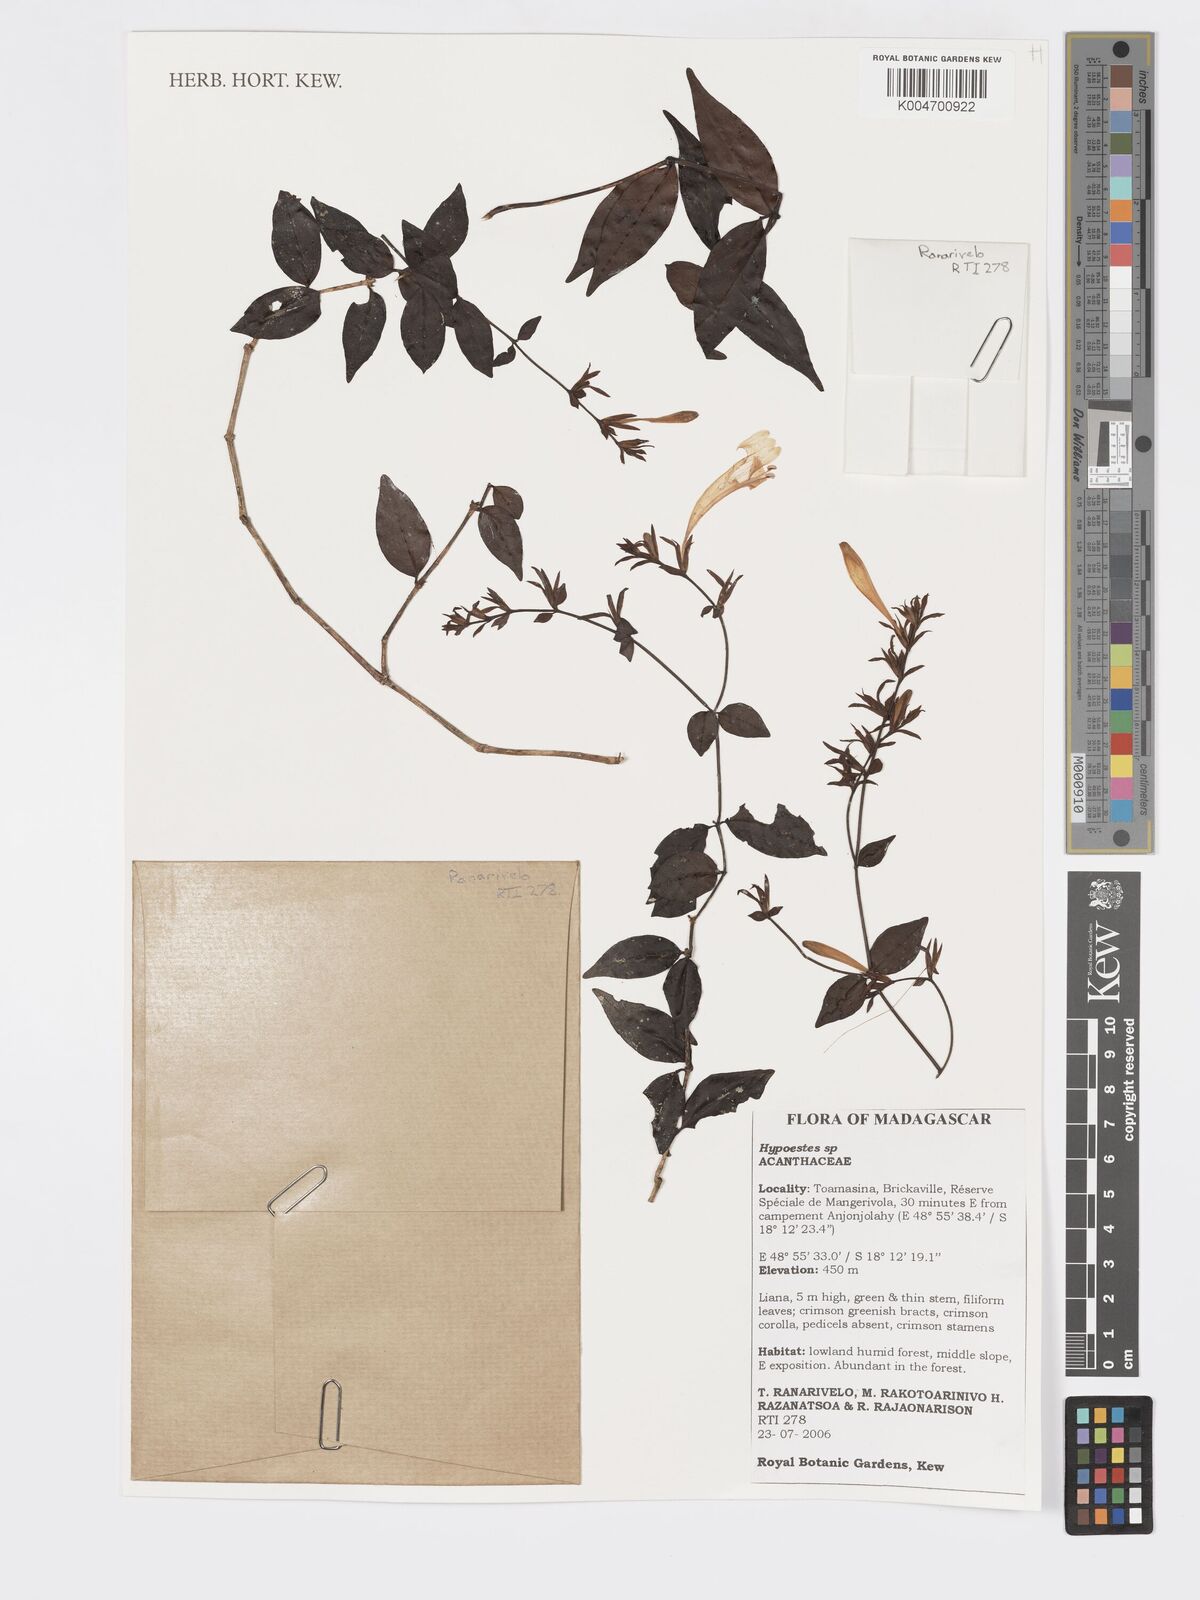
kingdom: Plantae
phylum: Tracheophyta
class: Magnoliopsida
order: Lamiales
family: Acanthaceae
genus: Hypoestes
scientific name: Hypoestes
